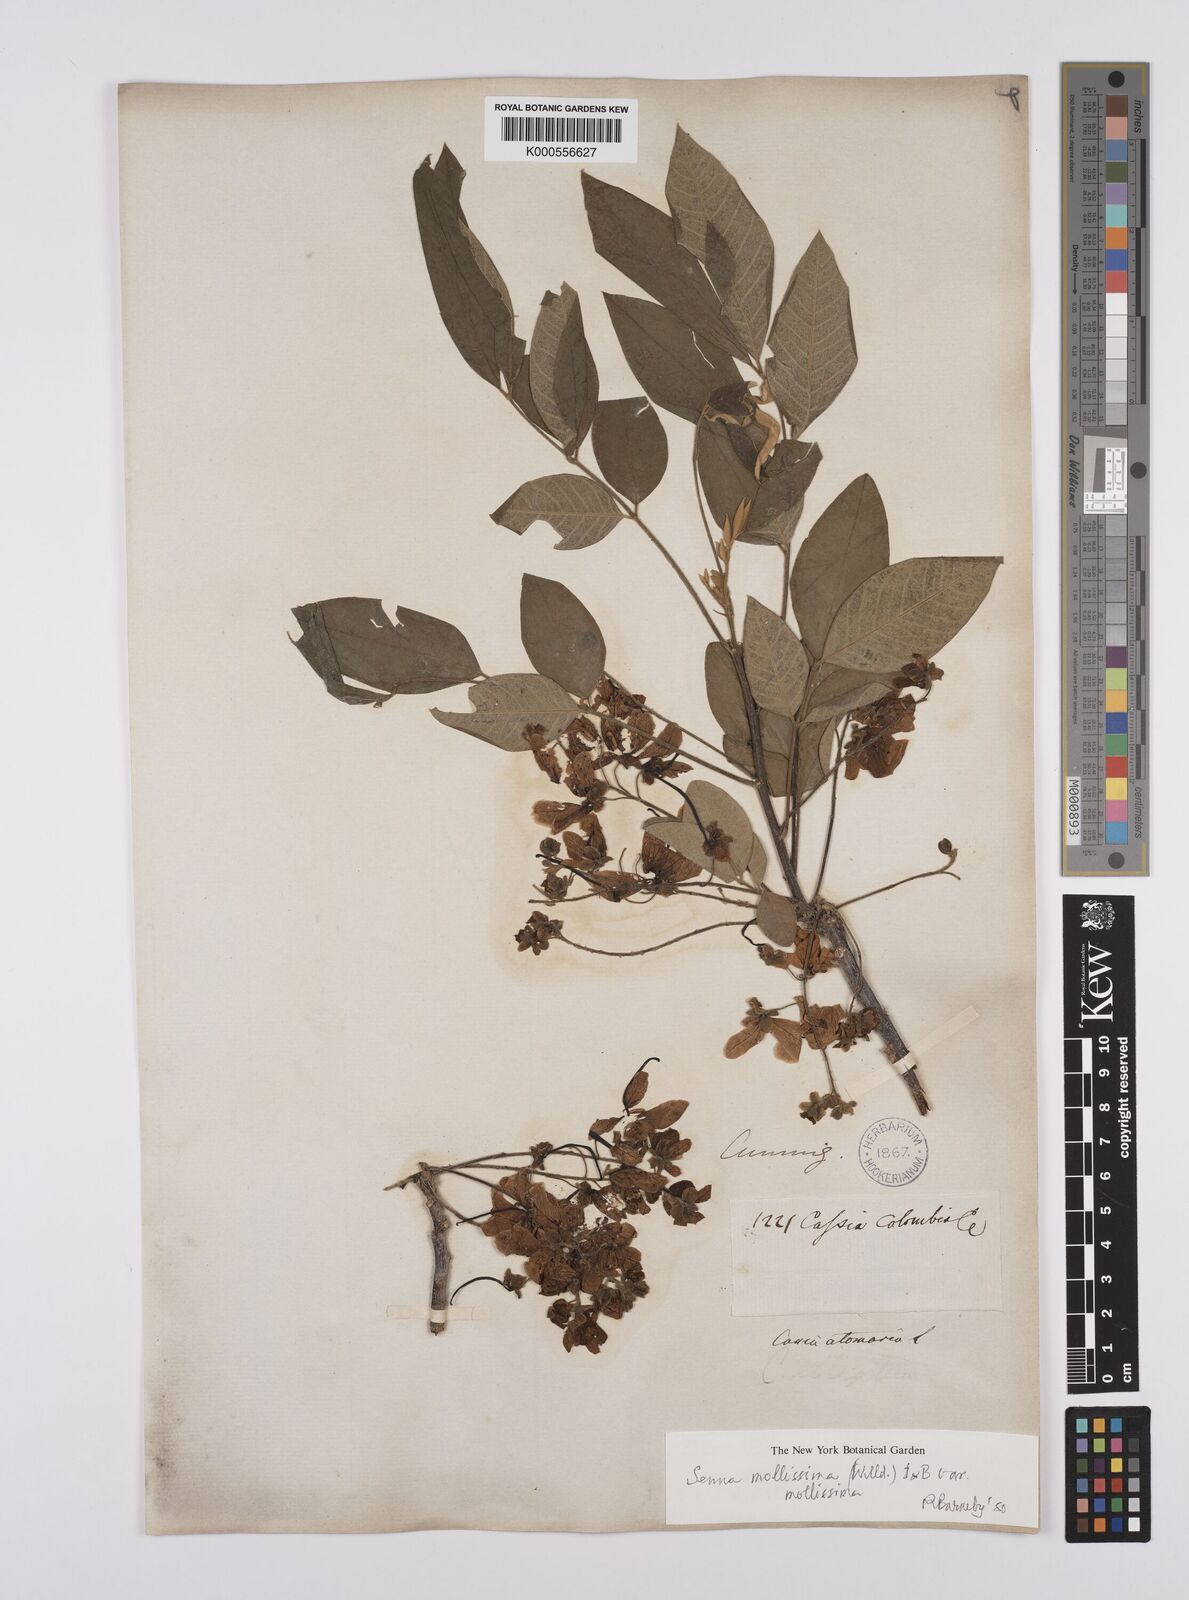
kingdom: Plantae
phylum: Tracheophyta
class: Magnoliopsida
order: Fabales
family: Fabaceae
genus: Senna
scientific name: Senna mollissima
